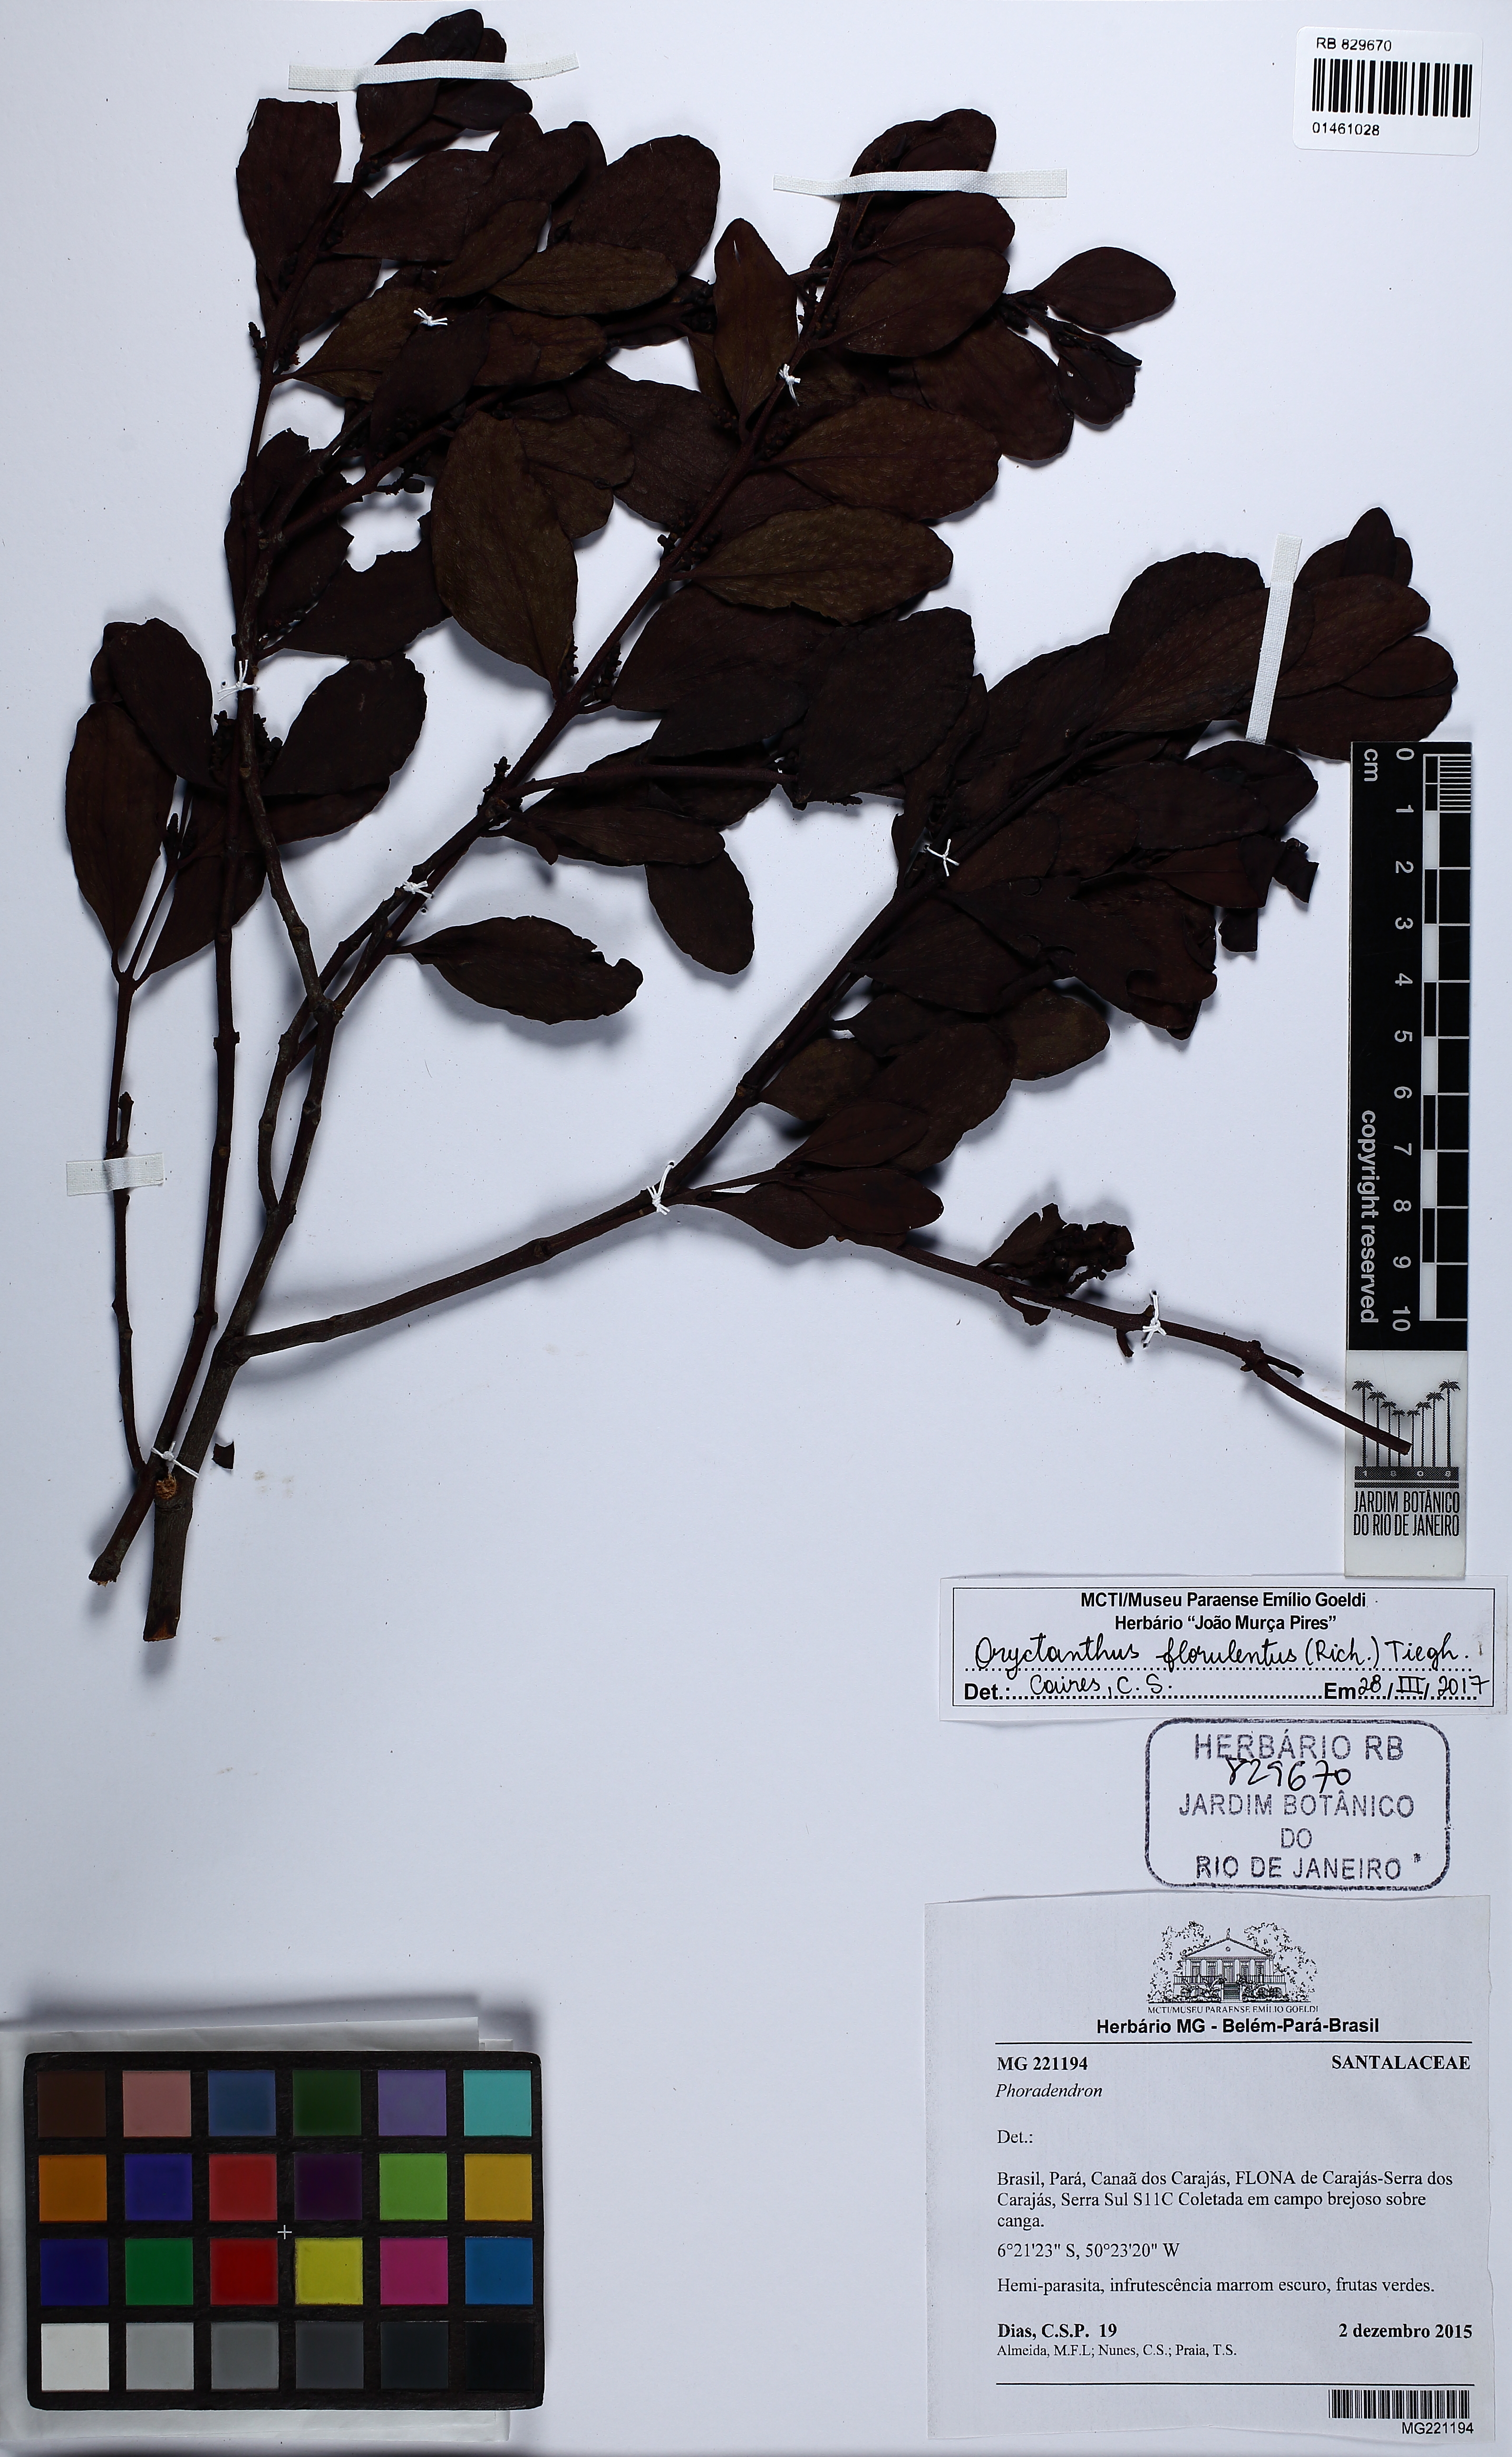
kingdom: Plantae
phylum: Tracheophyta
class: Magnoliopsida
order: Santalales
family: Loranthaceae
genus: Oryctanthus
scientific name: Oryctanthus florulentus
